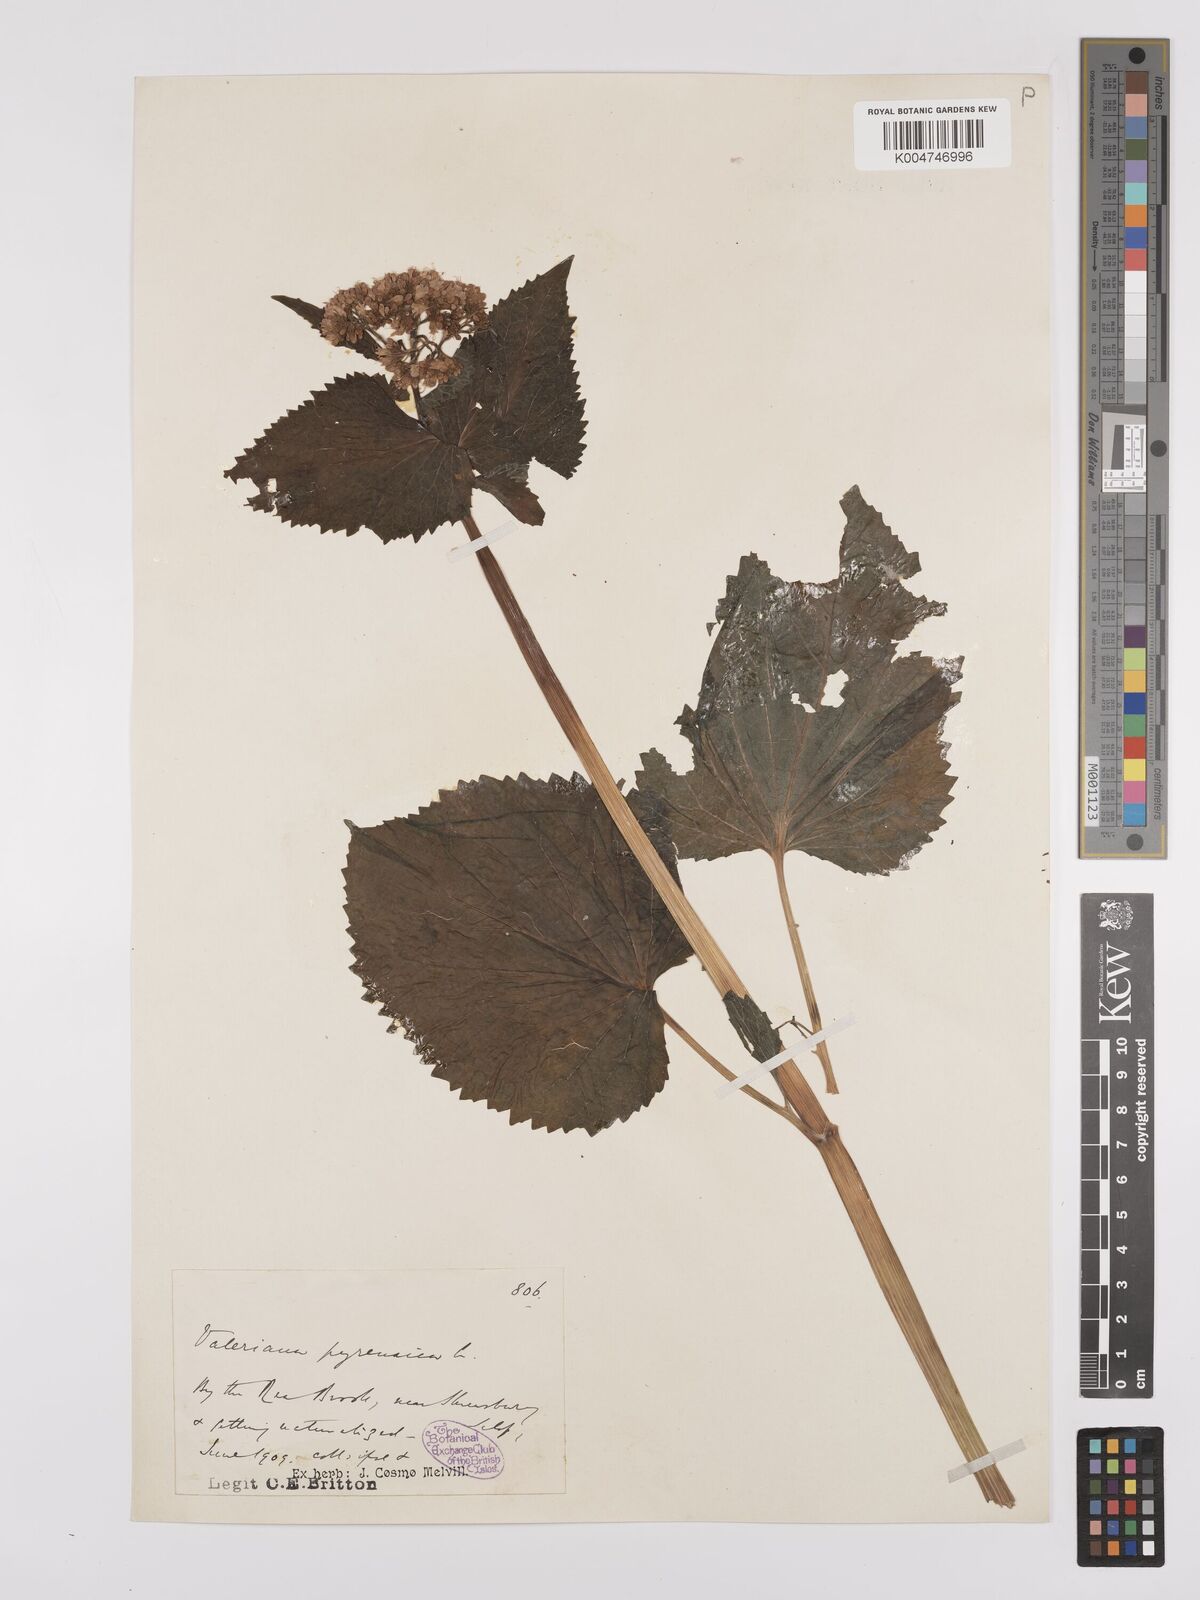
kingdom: Plantae
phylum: Tracheophyta
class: Magnoliopsida
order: Dipsacales
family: Caprifoliaceae
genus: Valeriana
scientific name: Valeriana pyrenaica
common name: Pyrenean valerian
